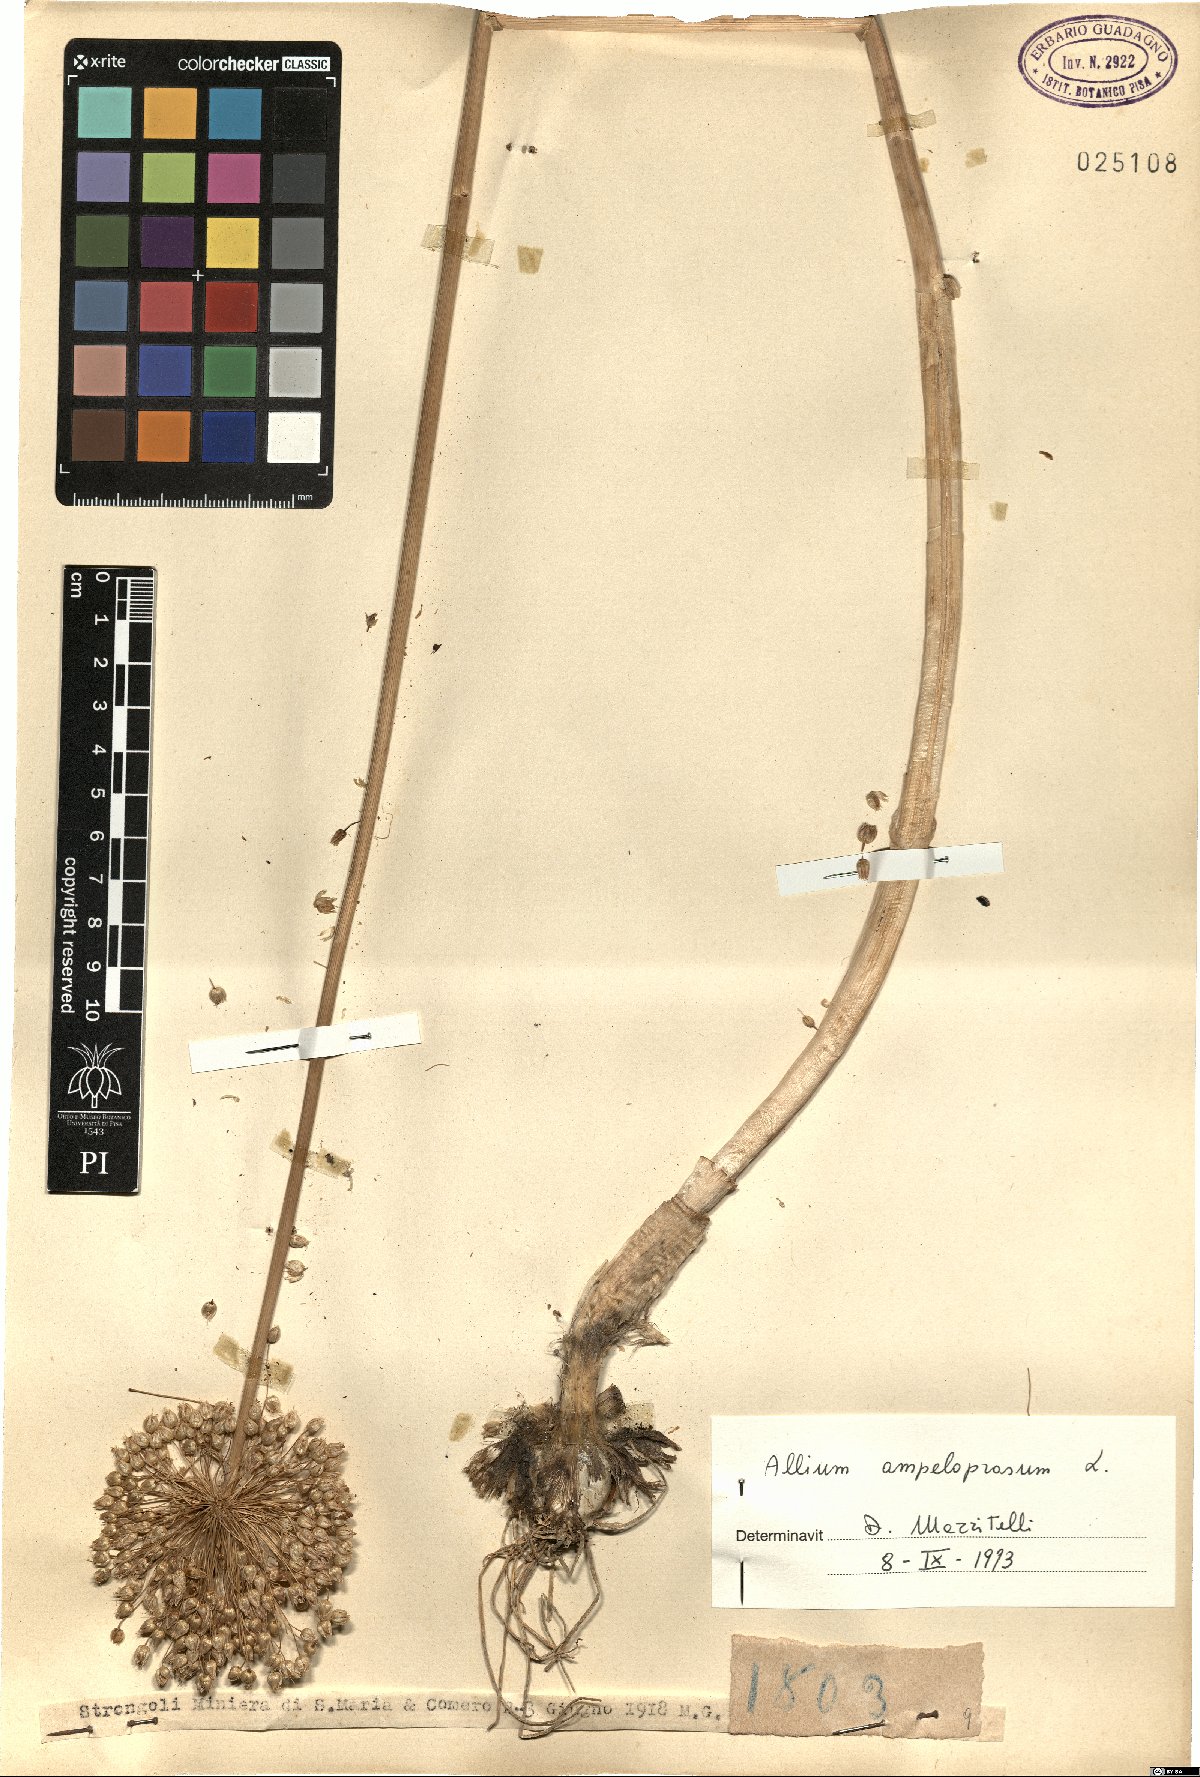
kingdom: Plantae
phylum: Tracheophyta
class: Liliopsida
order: Asparagales
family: Amaryllidaceae
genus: Allium
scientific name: Allium ampeloprasum
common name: Wild leek
